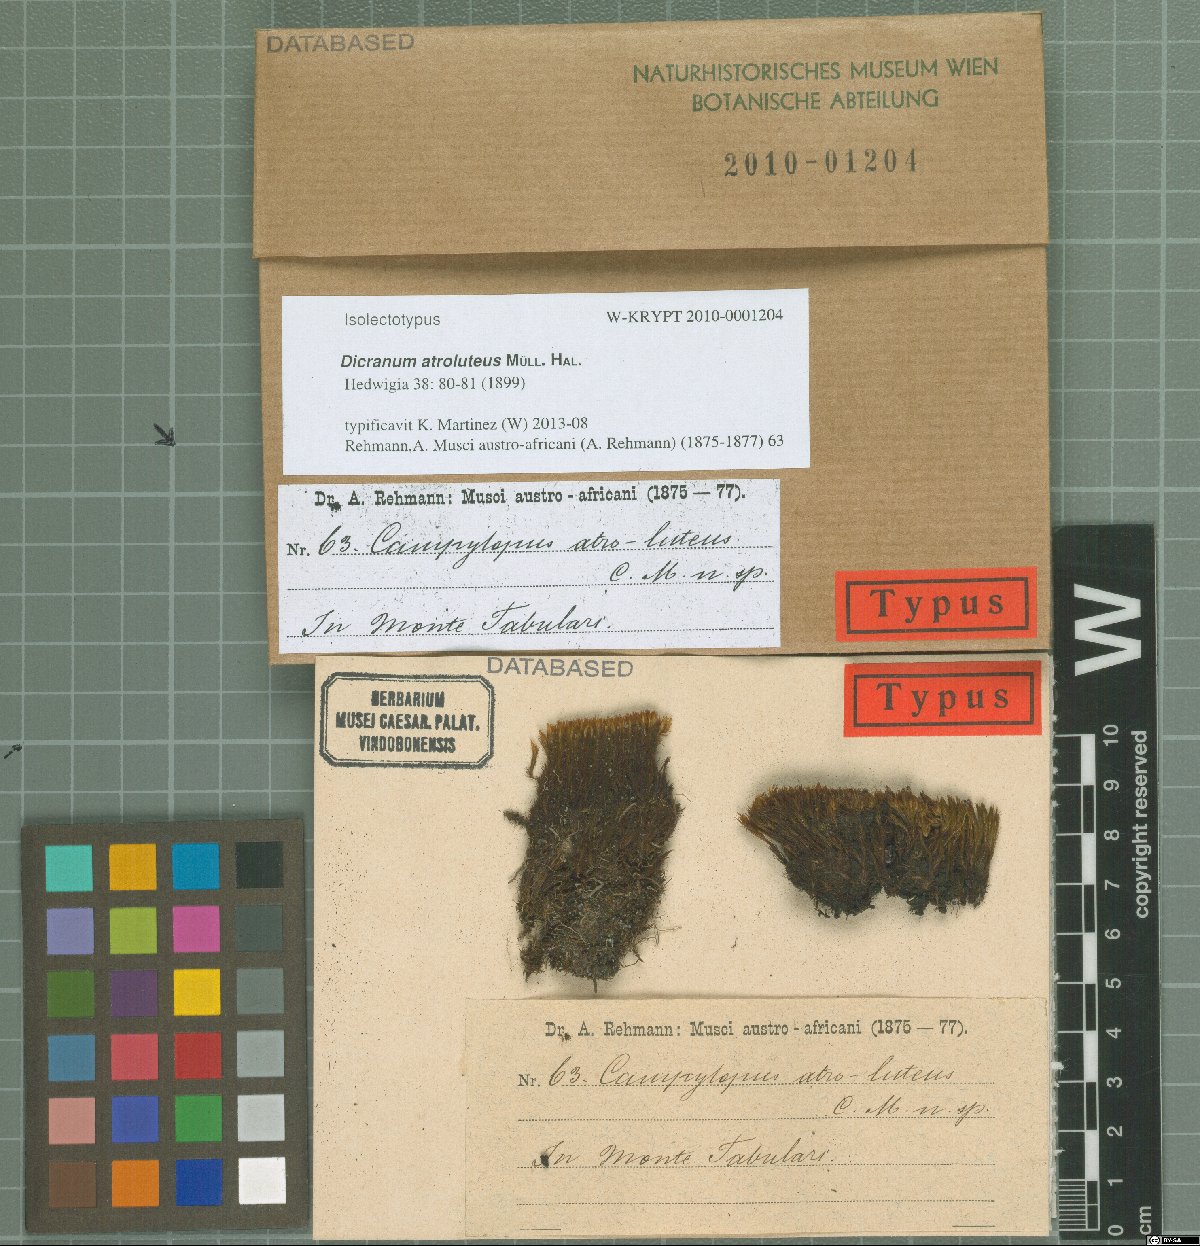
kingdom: Plantae
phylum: Bryophyta
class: Bryopsida
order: Dicranales
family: Leucobryaceae
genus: Campylopus
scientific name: Campylopus bicolor
